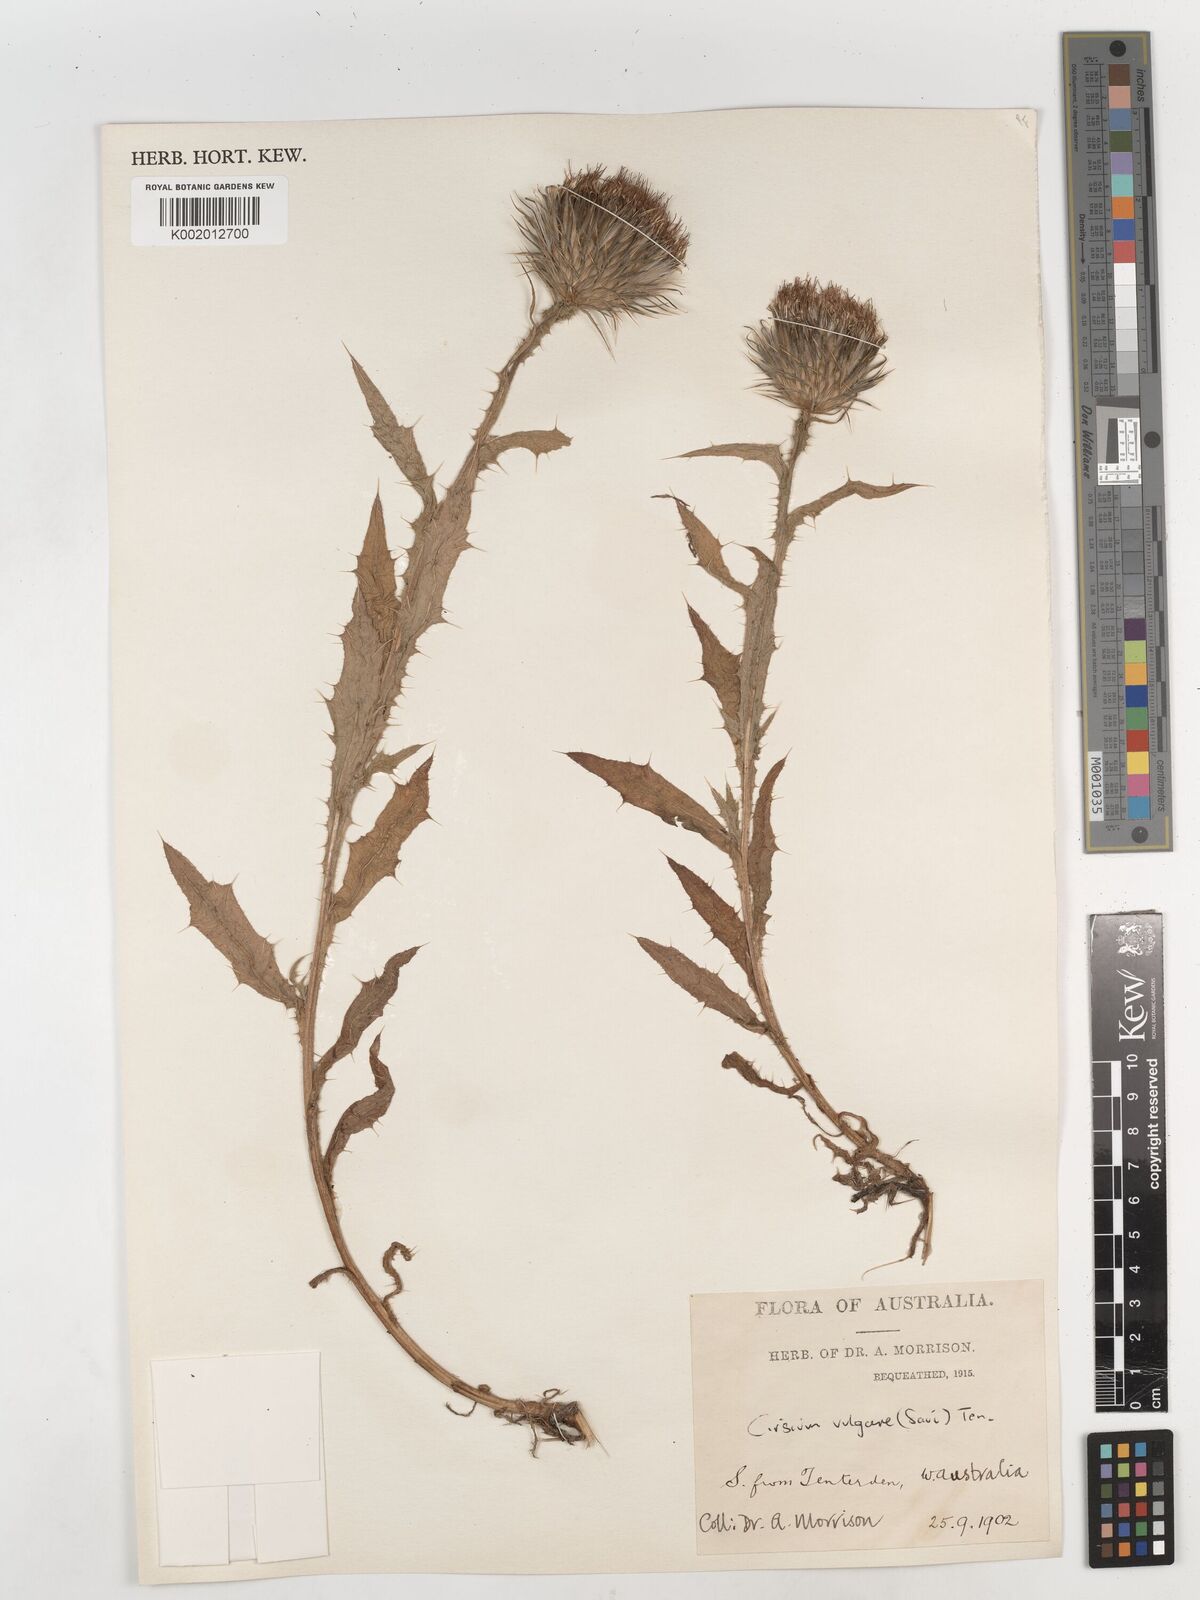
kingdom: Plantae
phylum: Tracheophyta
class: Magnoliopsida
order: Asterales
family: Asteraceae
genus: Cirsium
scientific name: Cirsium vulgare
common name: Bull thistle
